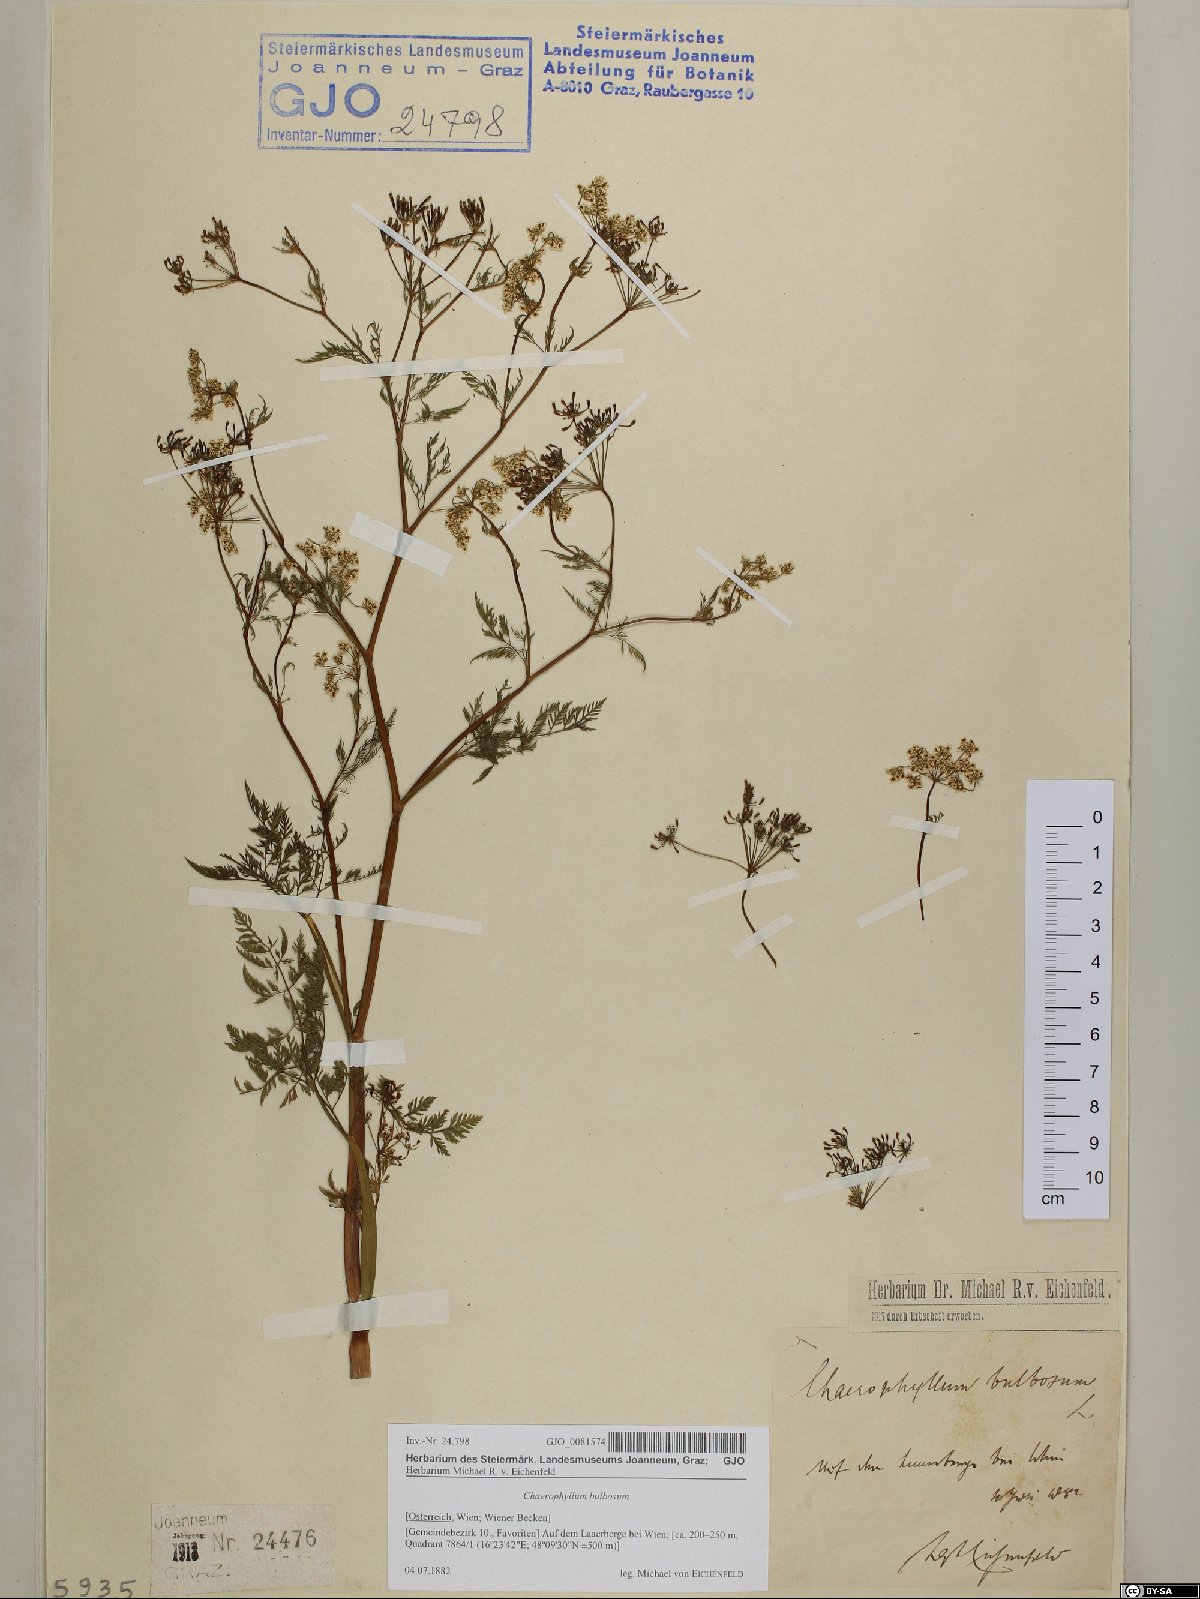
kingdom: Plantae
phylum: Tracheophyta
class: Magnoliopsida
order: Apiales
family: Apiaceae
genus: Chaerophyllum
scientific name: Chaerophyllum bulbosum
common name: Bulbous chervil
